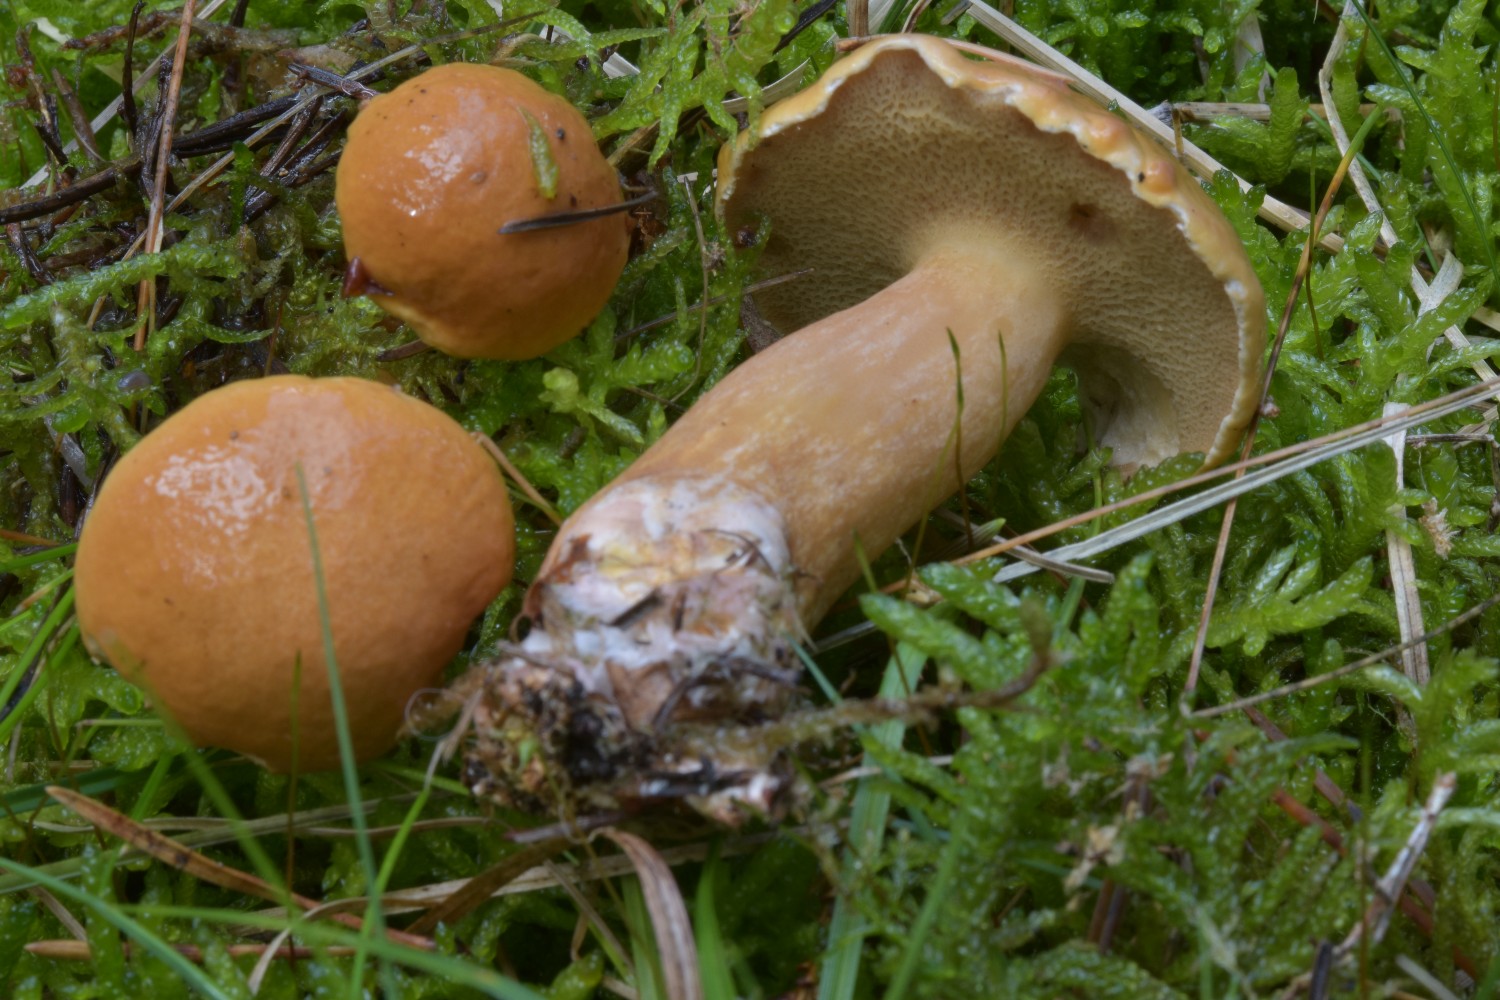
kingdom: Fungi
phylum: Basidiomycota
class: Agaricomycetes
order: Boletales
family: Suillaceae
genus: Suillus
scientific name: Suillus bovinus
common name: grovporet slimrørhat
